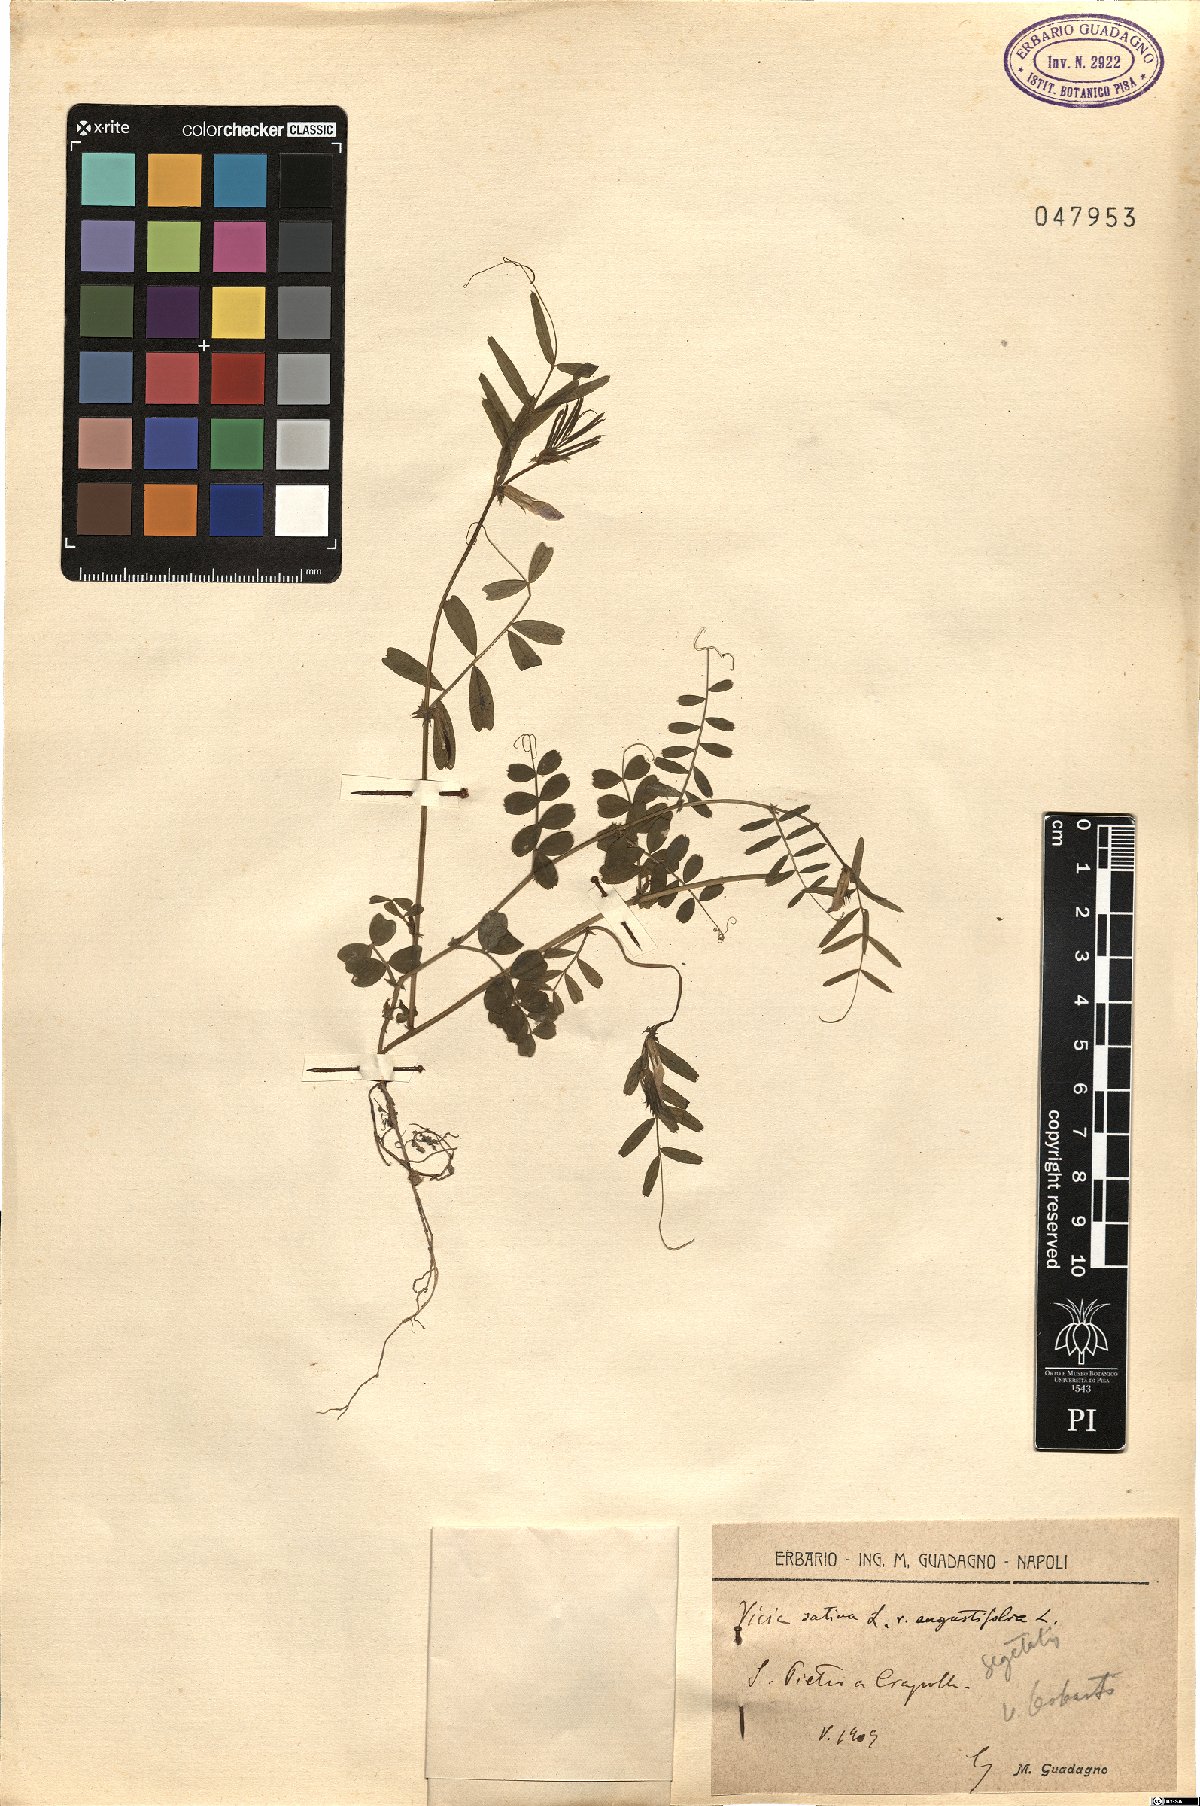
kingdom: Plantae
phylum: Tracheophyta
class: Magnoliopsida
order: Fabales
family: Fabaceae
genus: Vicia
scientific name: Vicia sativa
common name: Garden vetch
